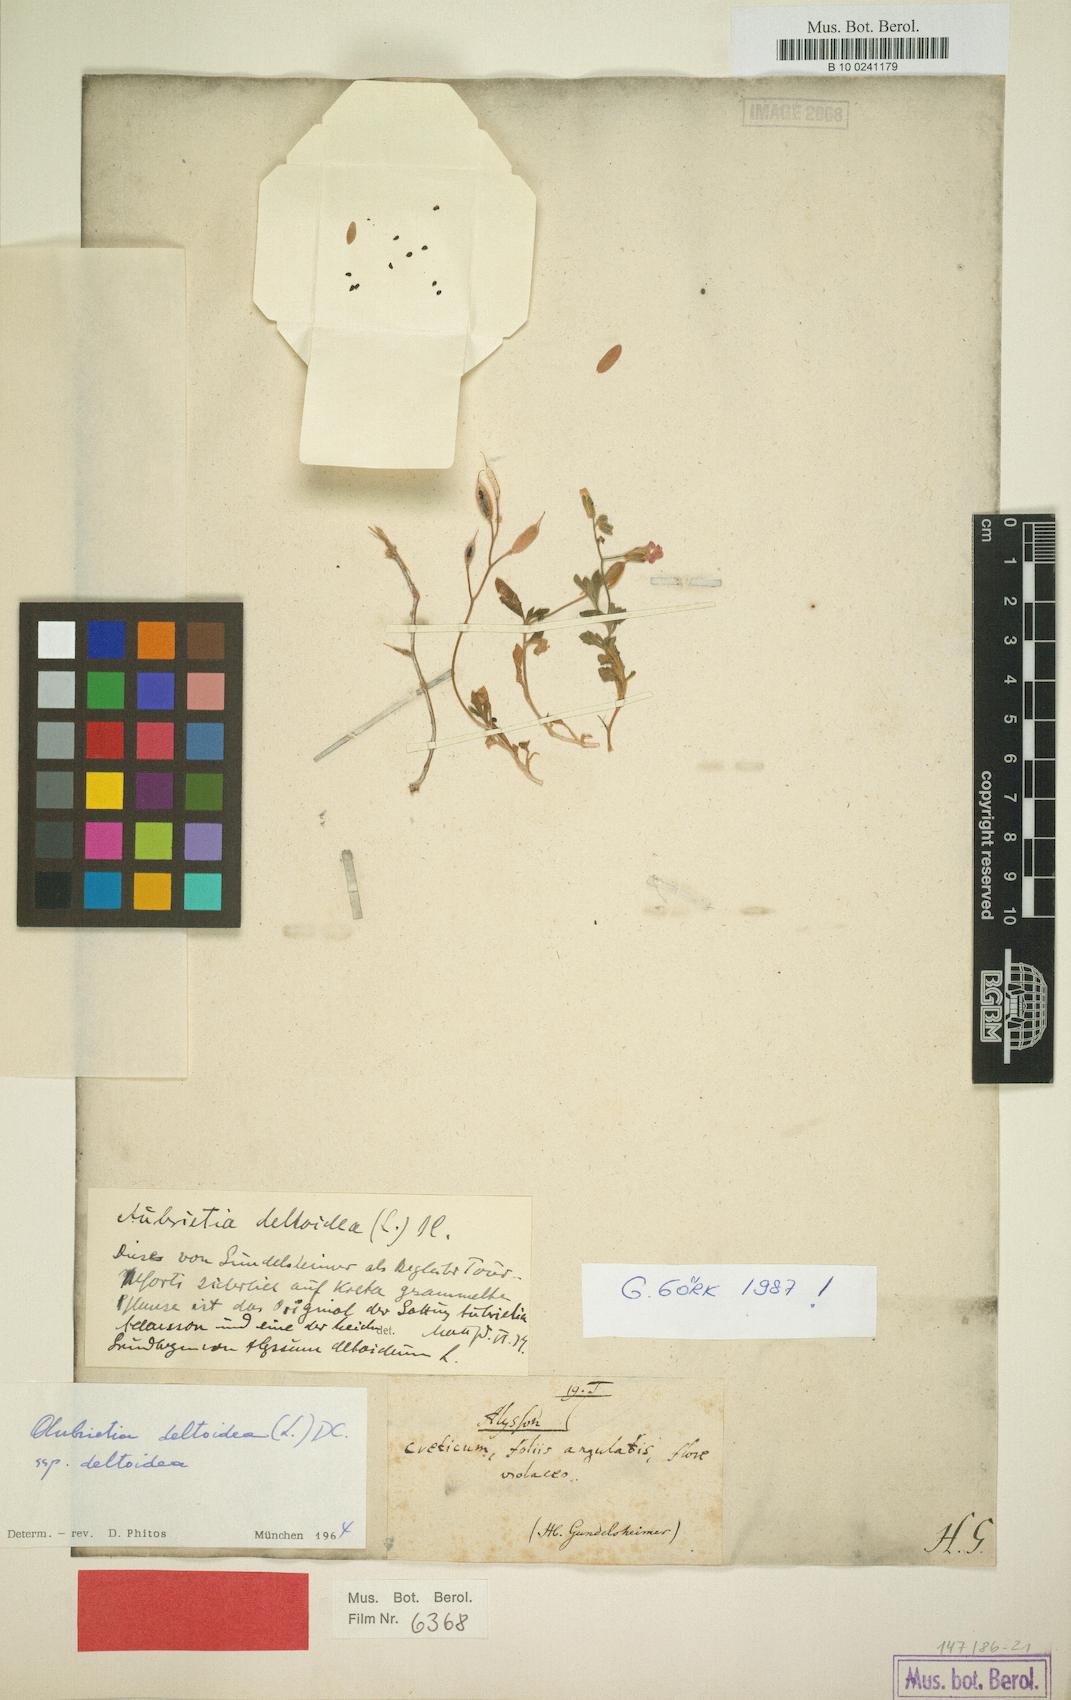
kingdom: Plantae
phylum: Tracheophyta
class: Magnoliopsida
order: Brassicales
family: Brassicaceae
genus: Aubrieta
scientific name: Aubrieta deltoidea
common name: Aubretia
